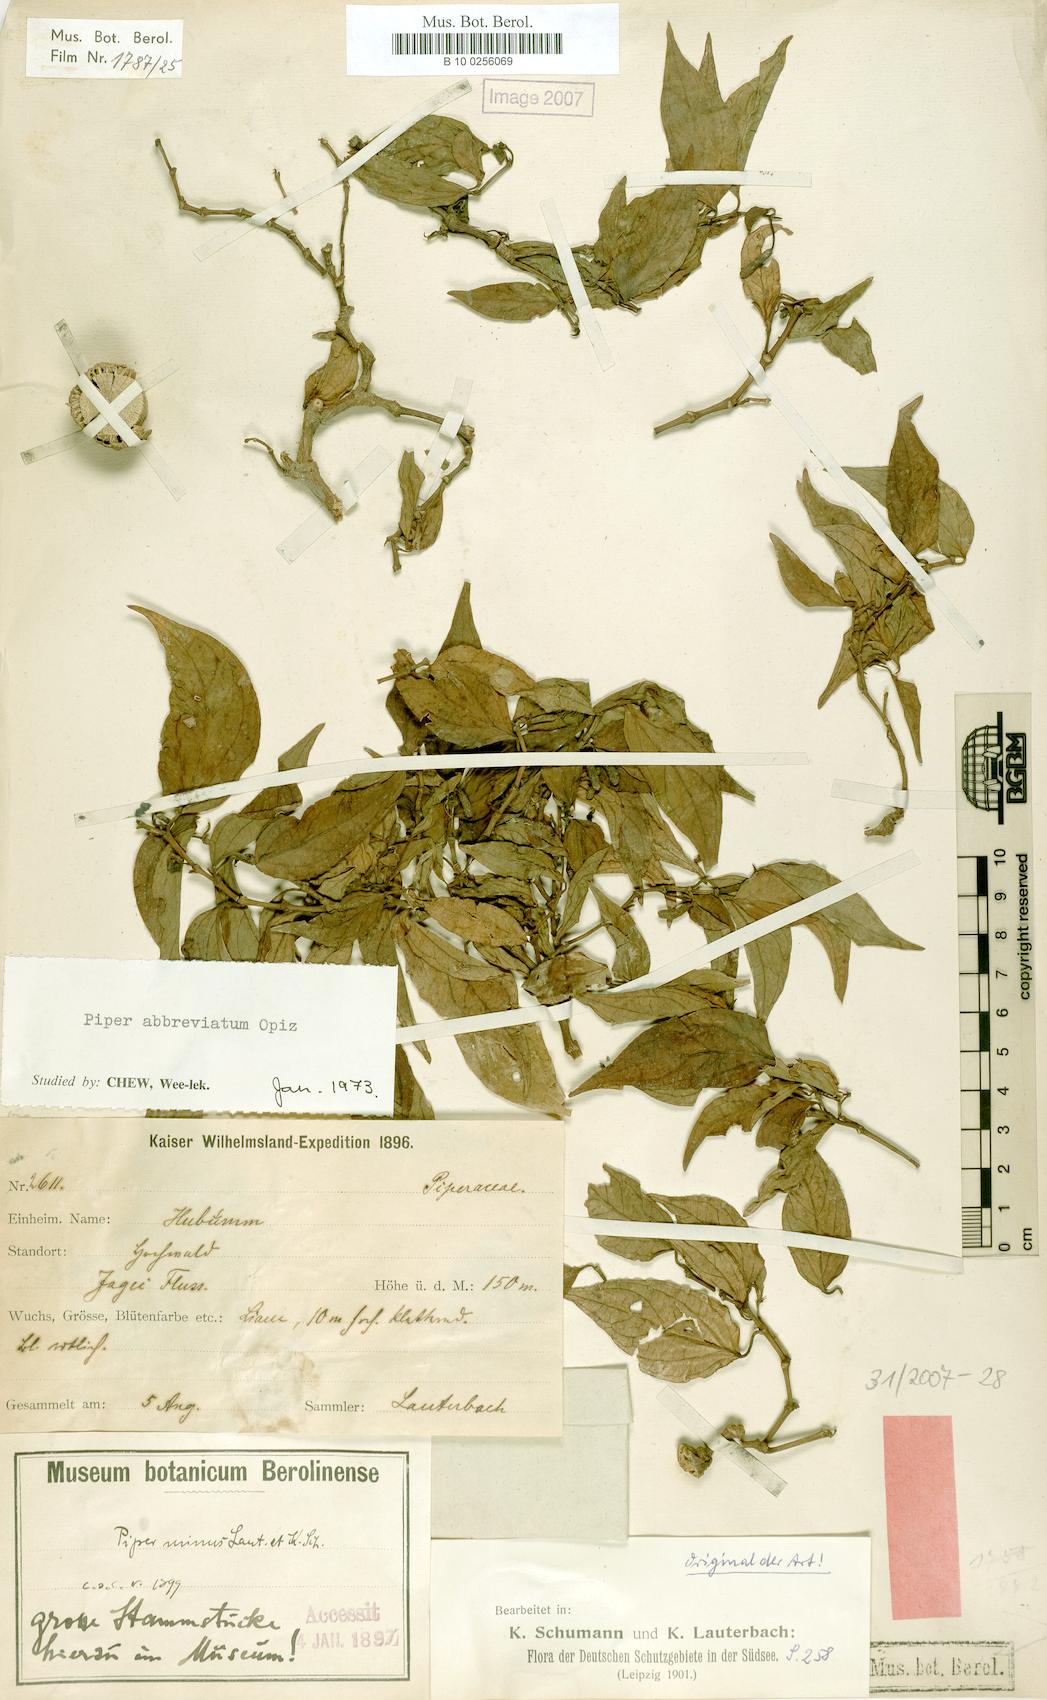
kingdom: Plantae
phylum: Tracheophyta
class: Magnoliopsida
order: Piperales
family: Piperaceae
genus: Piper
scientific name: Piper abbreviatum
